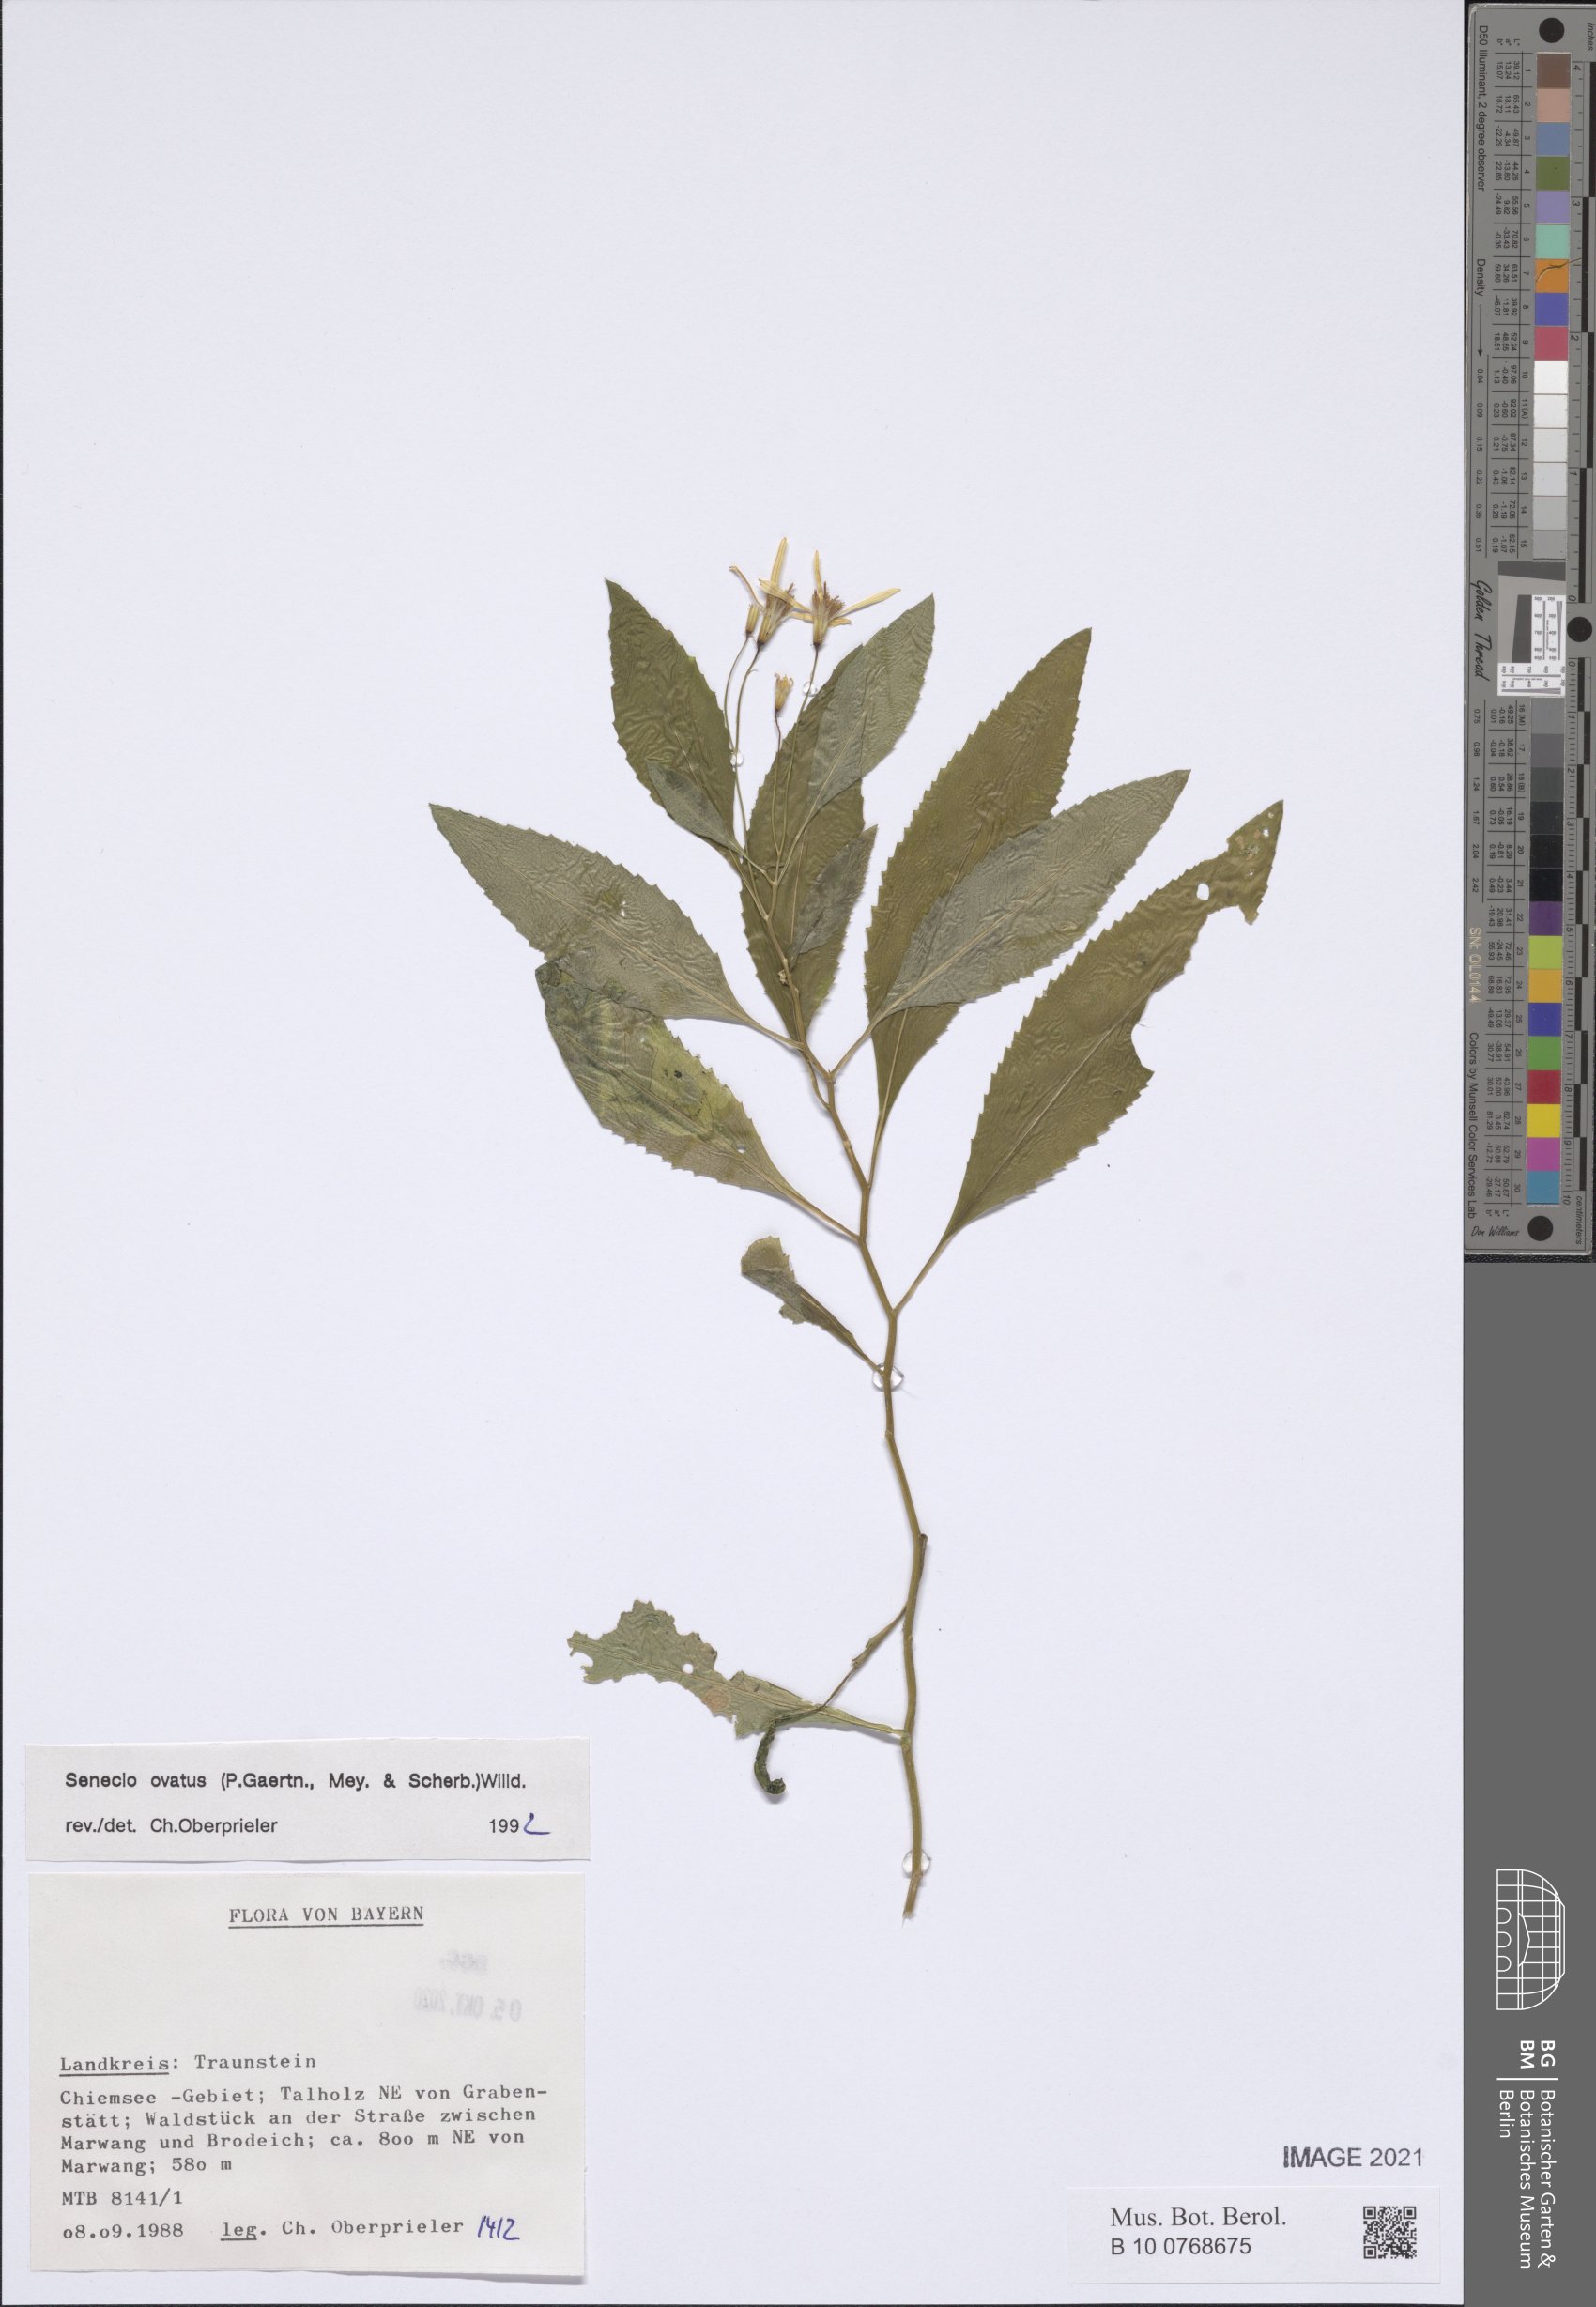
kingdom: Plantae
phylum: Tracheophyta
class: Magnoliopsida
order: Asterales
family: Asteraceae
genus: Senecio
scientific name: Senecio ovatus
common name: Wood ragwort
